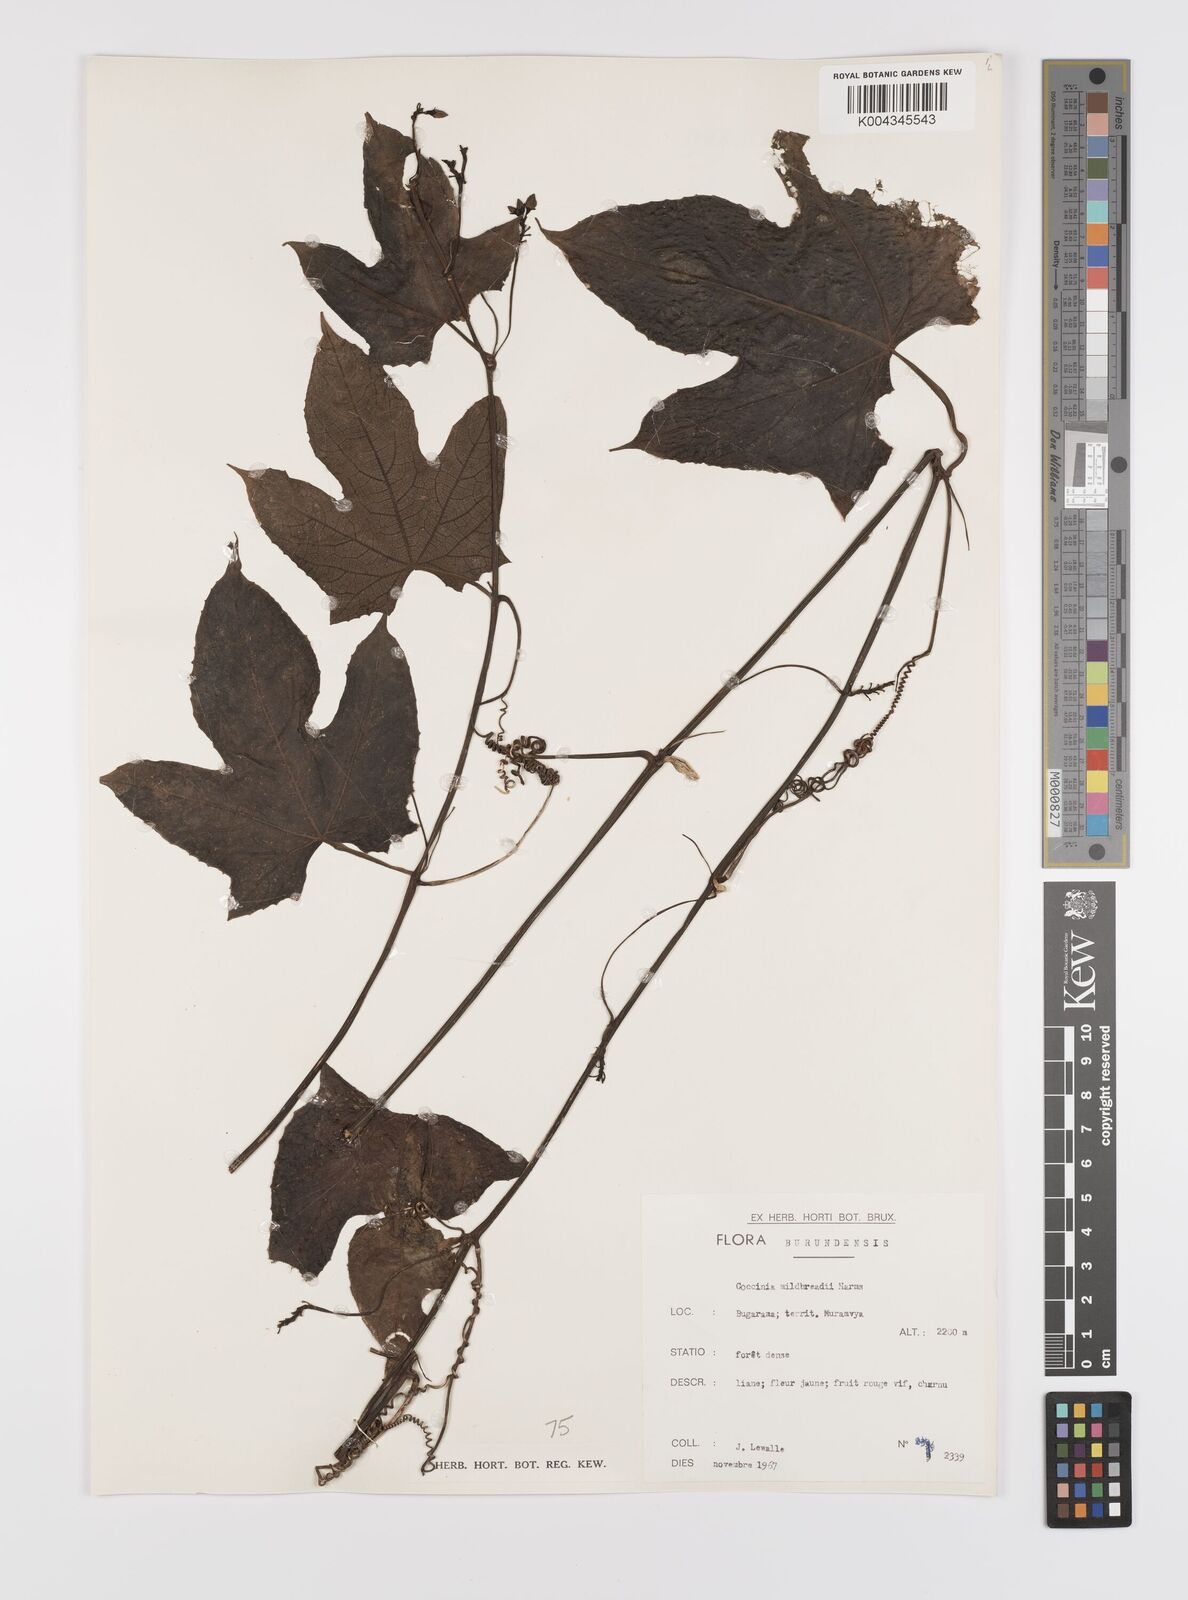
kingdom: Plantae
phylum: Tracheophyta
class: Magnoliopsida
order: Cucurbitales
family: Cucurbitaceae
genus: Coccinia
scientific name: Coccinia mildbraedii
